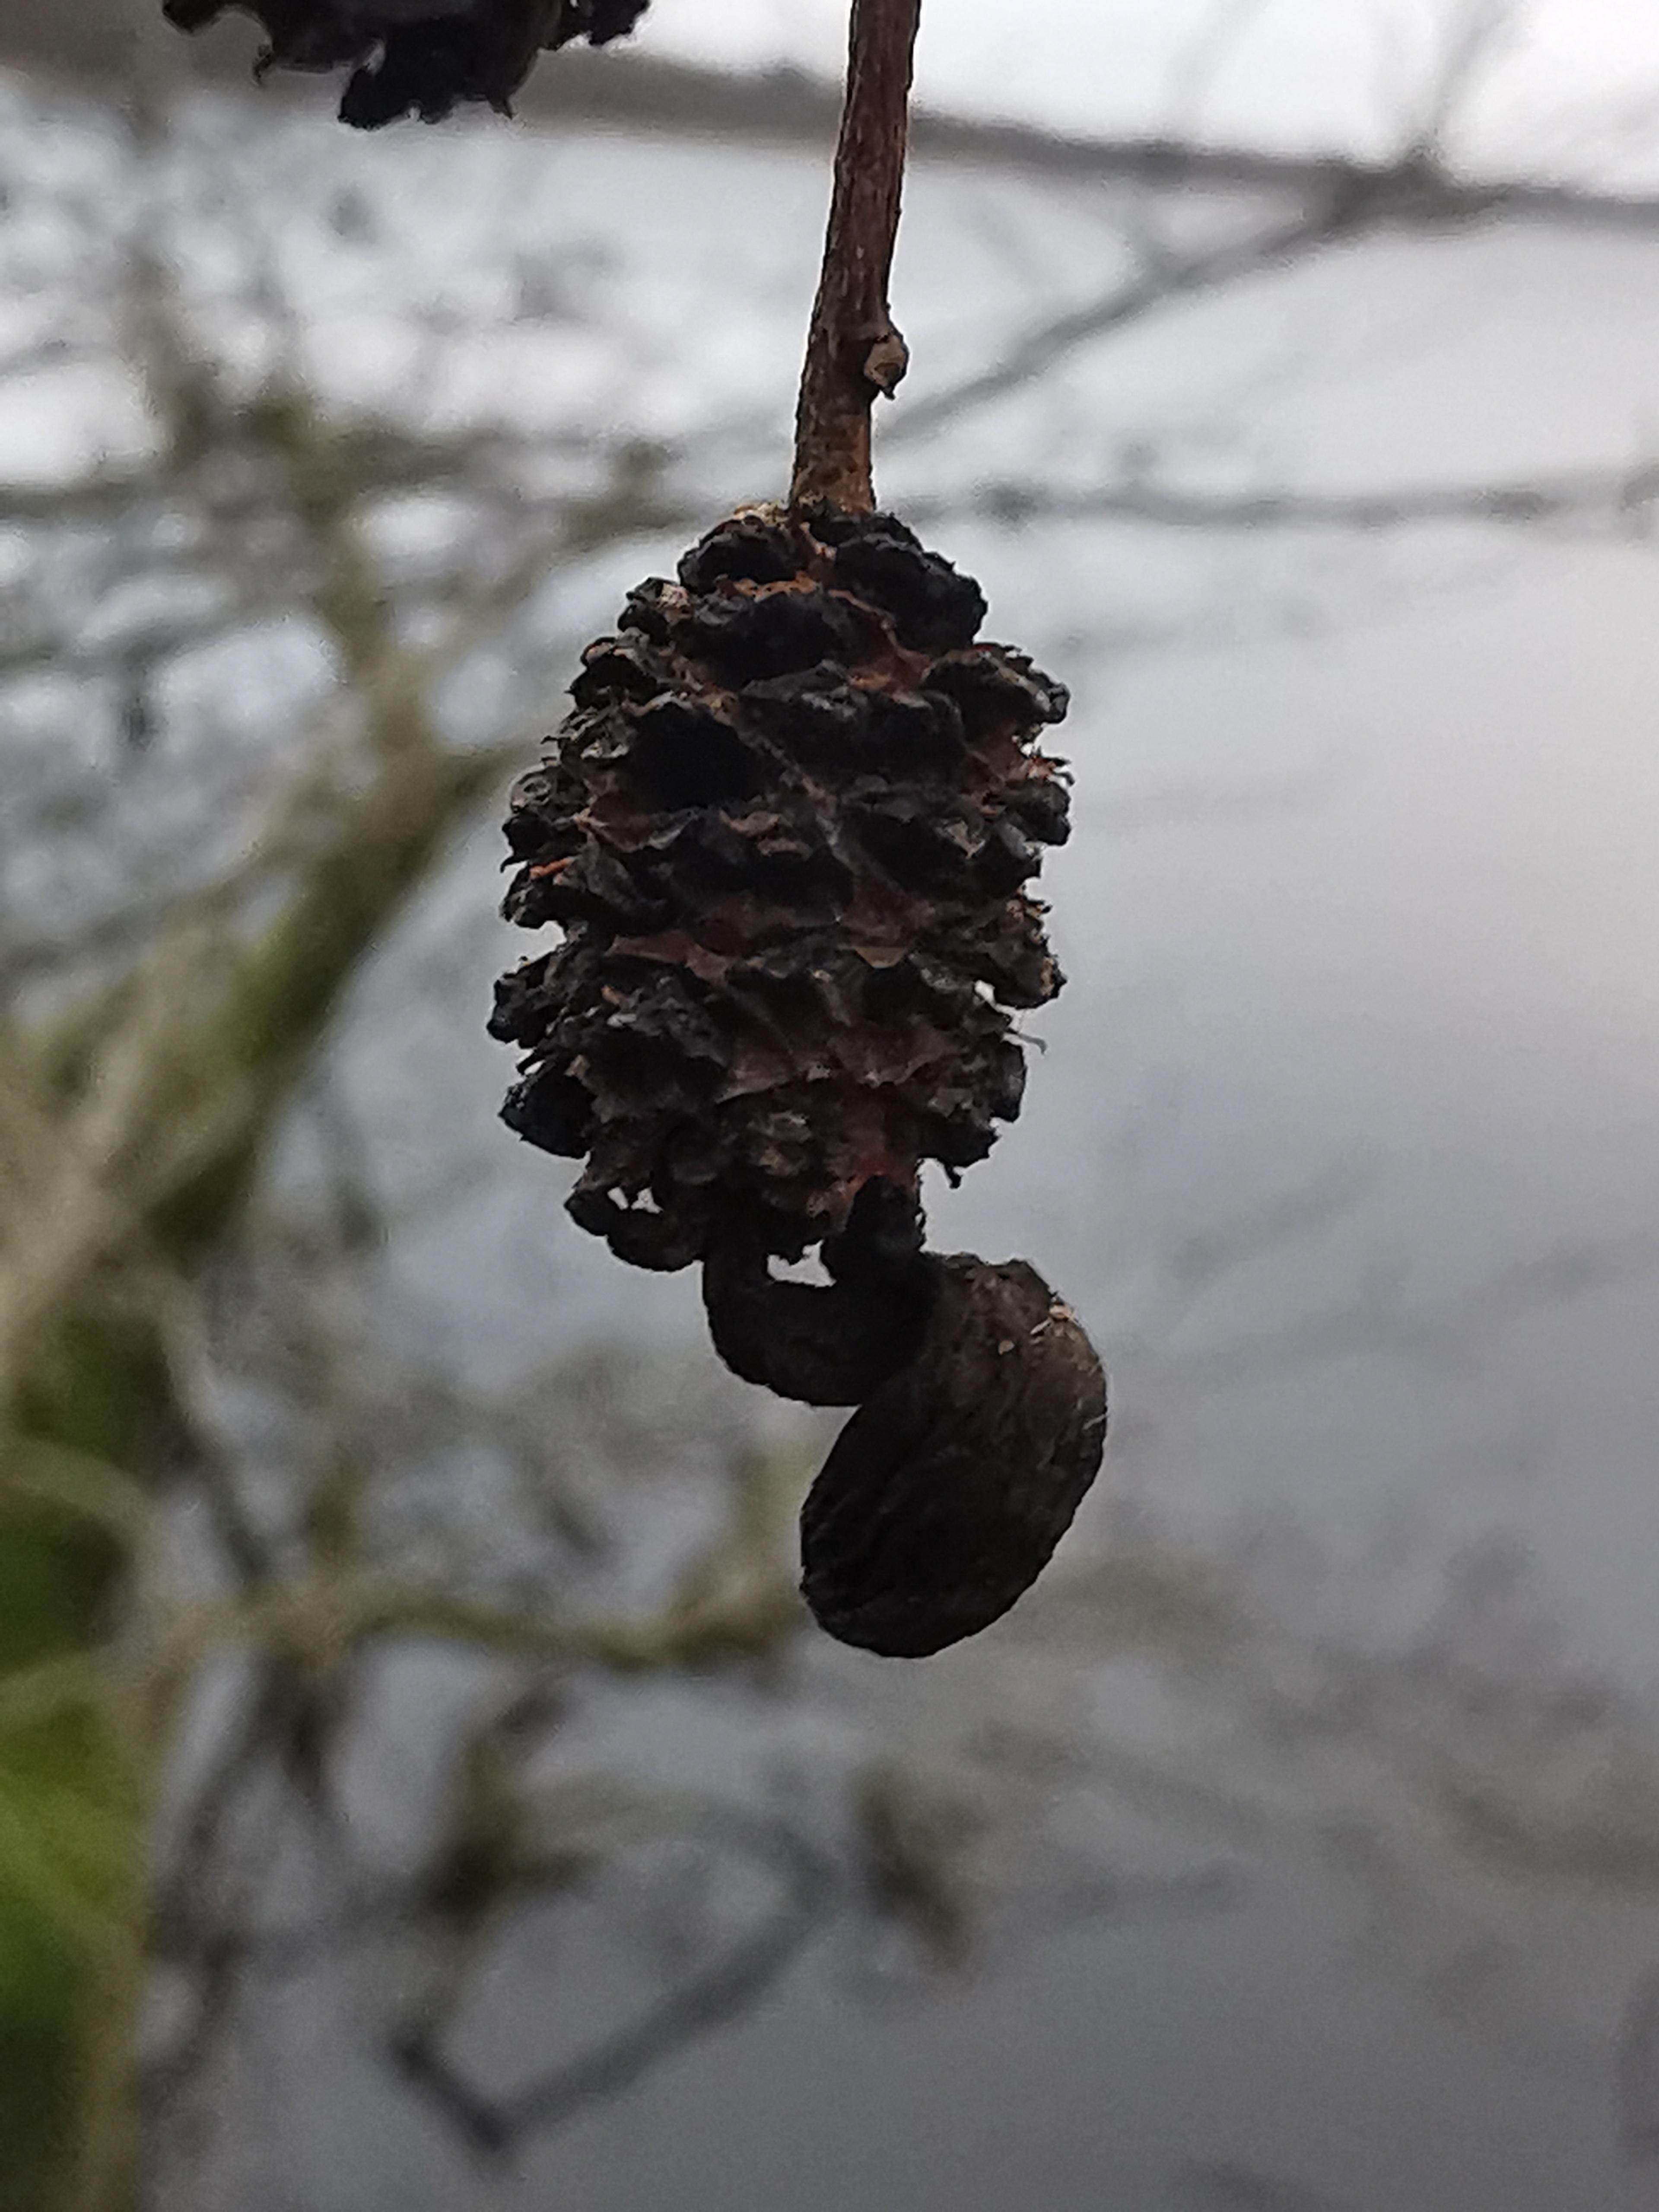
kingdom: Fungi
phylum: Ascomycota
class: Taphrinomycetes
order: Taphrinales
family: Taphrinaceae
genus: Taphrina
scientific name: Taphrina alni
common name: Alder tongue
